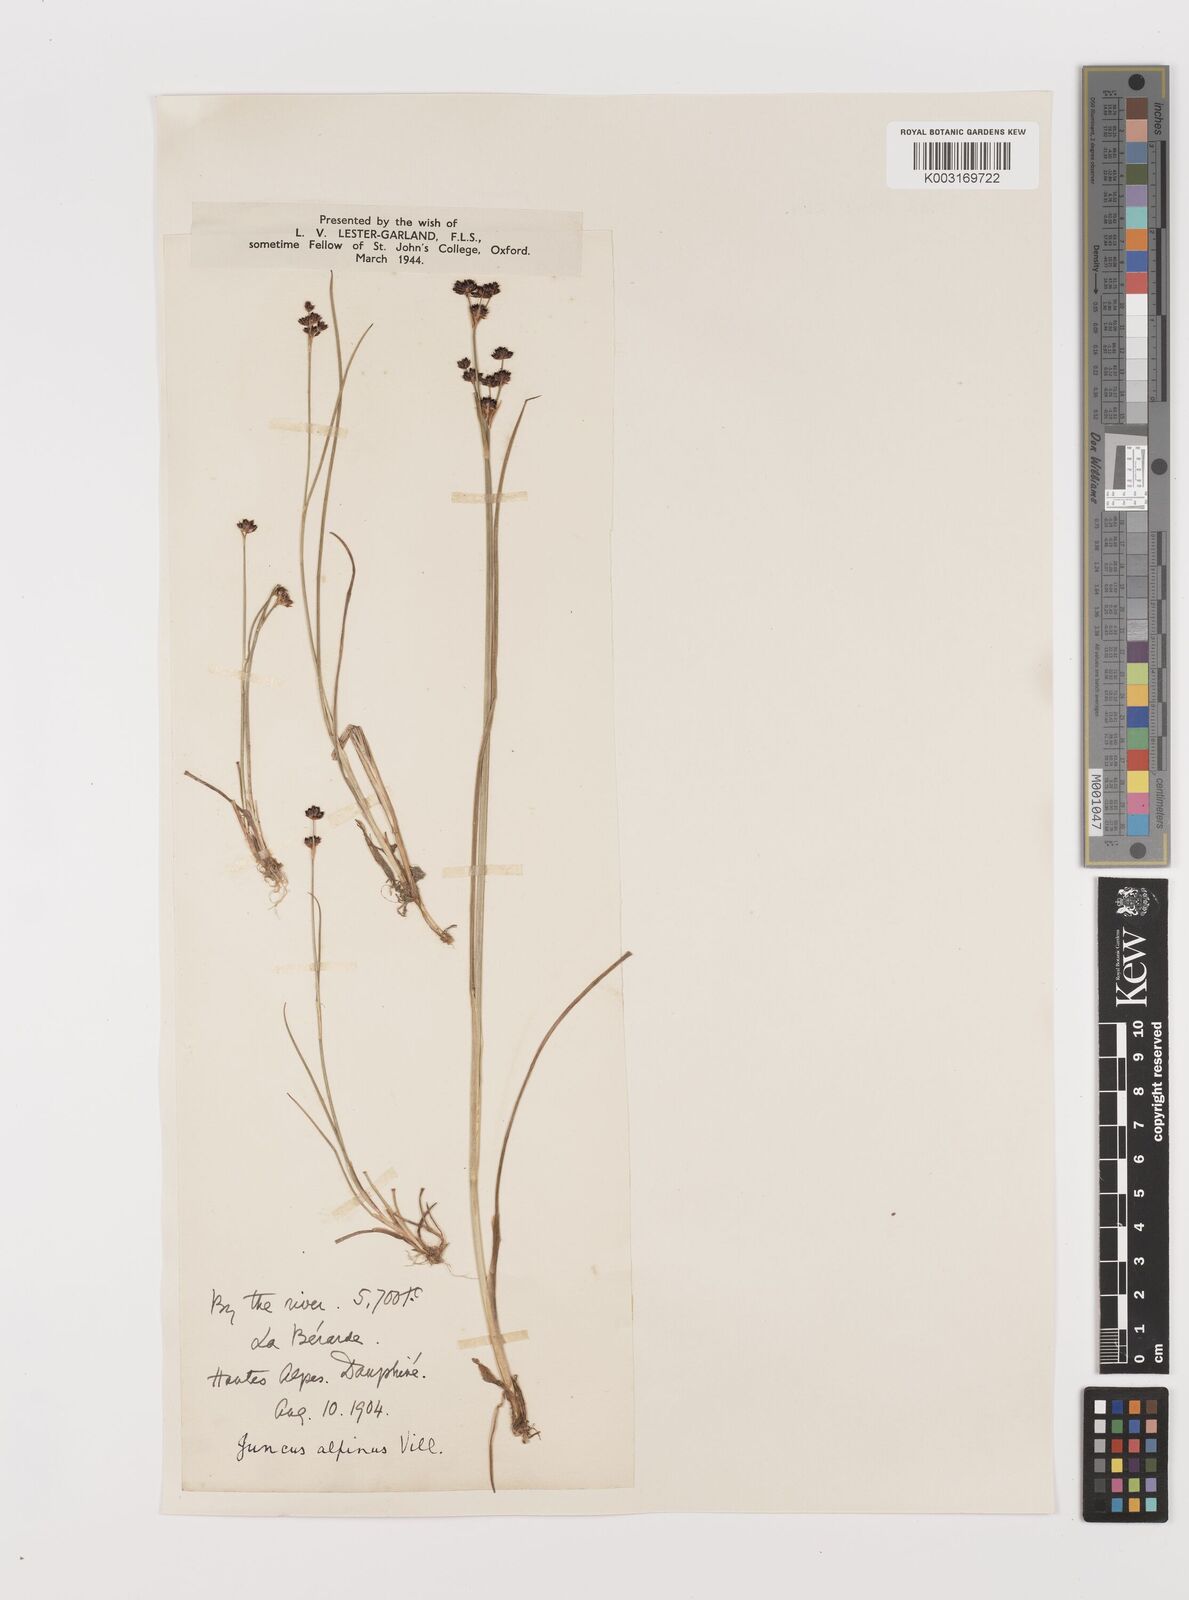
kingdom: Plantae
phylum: Tracheophyta
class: Liliopsida
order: Poales
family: Juncaceae
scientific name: Juncaceae
